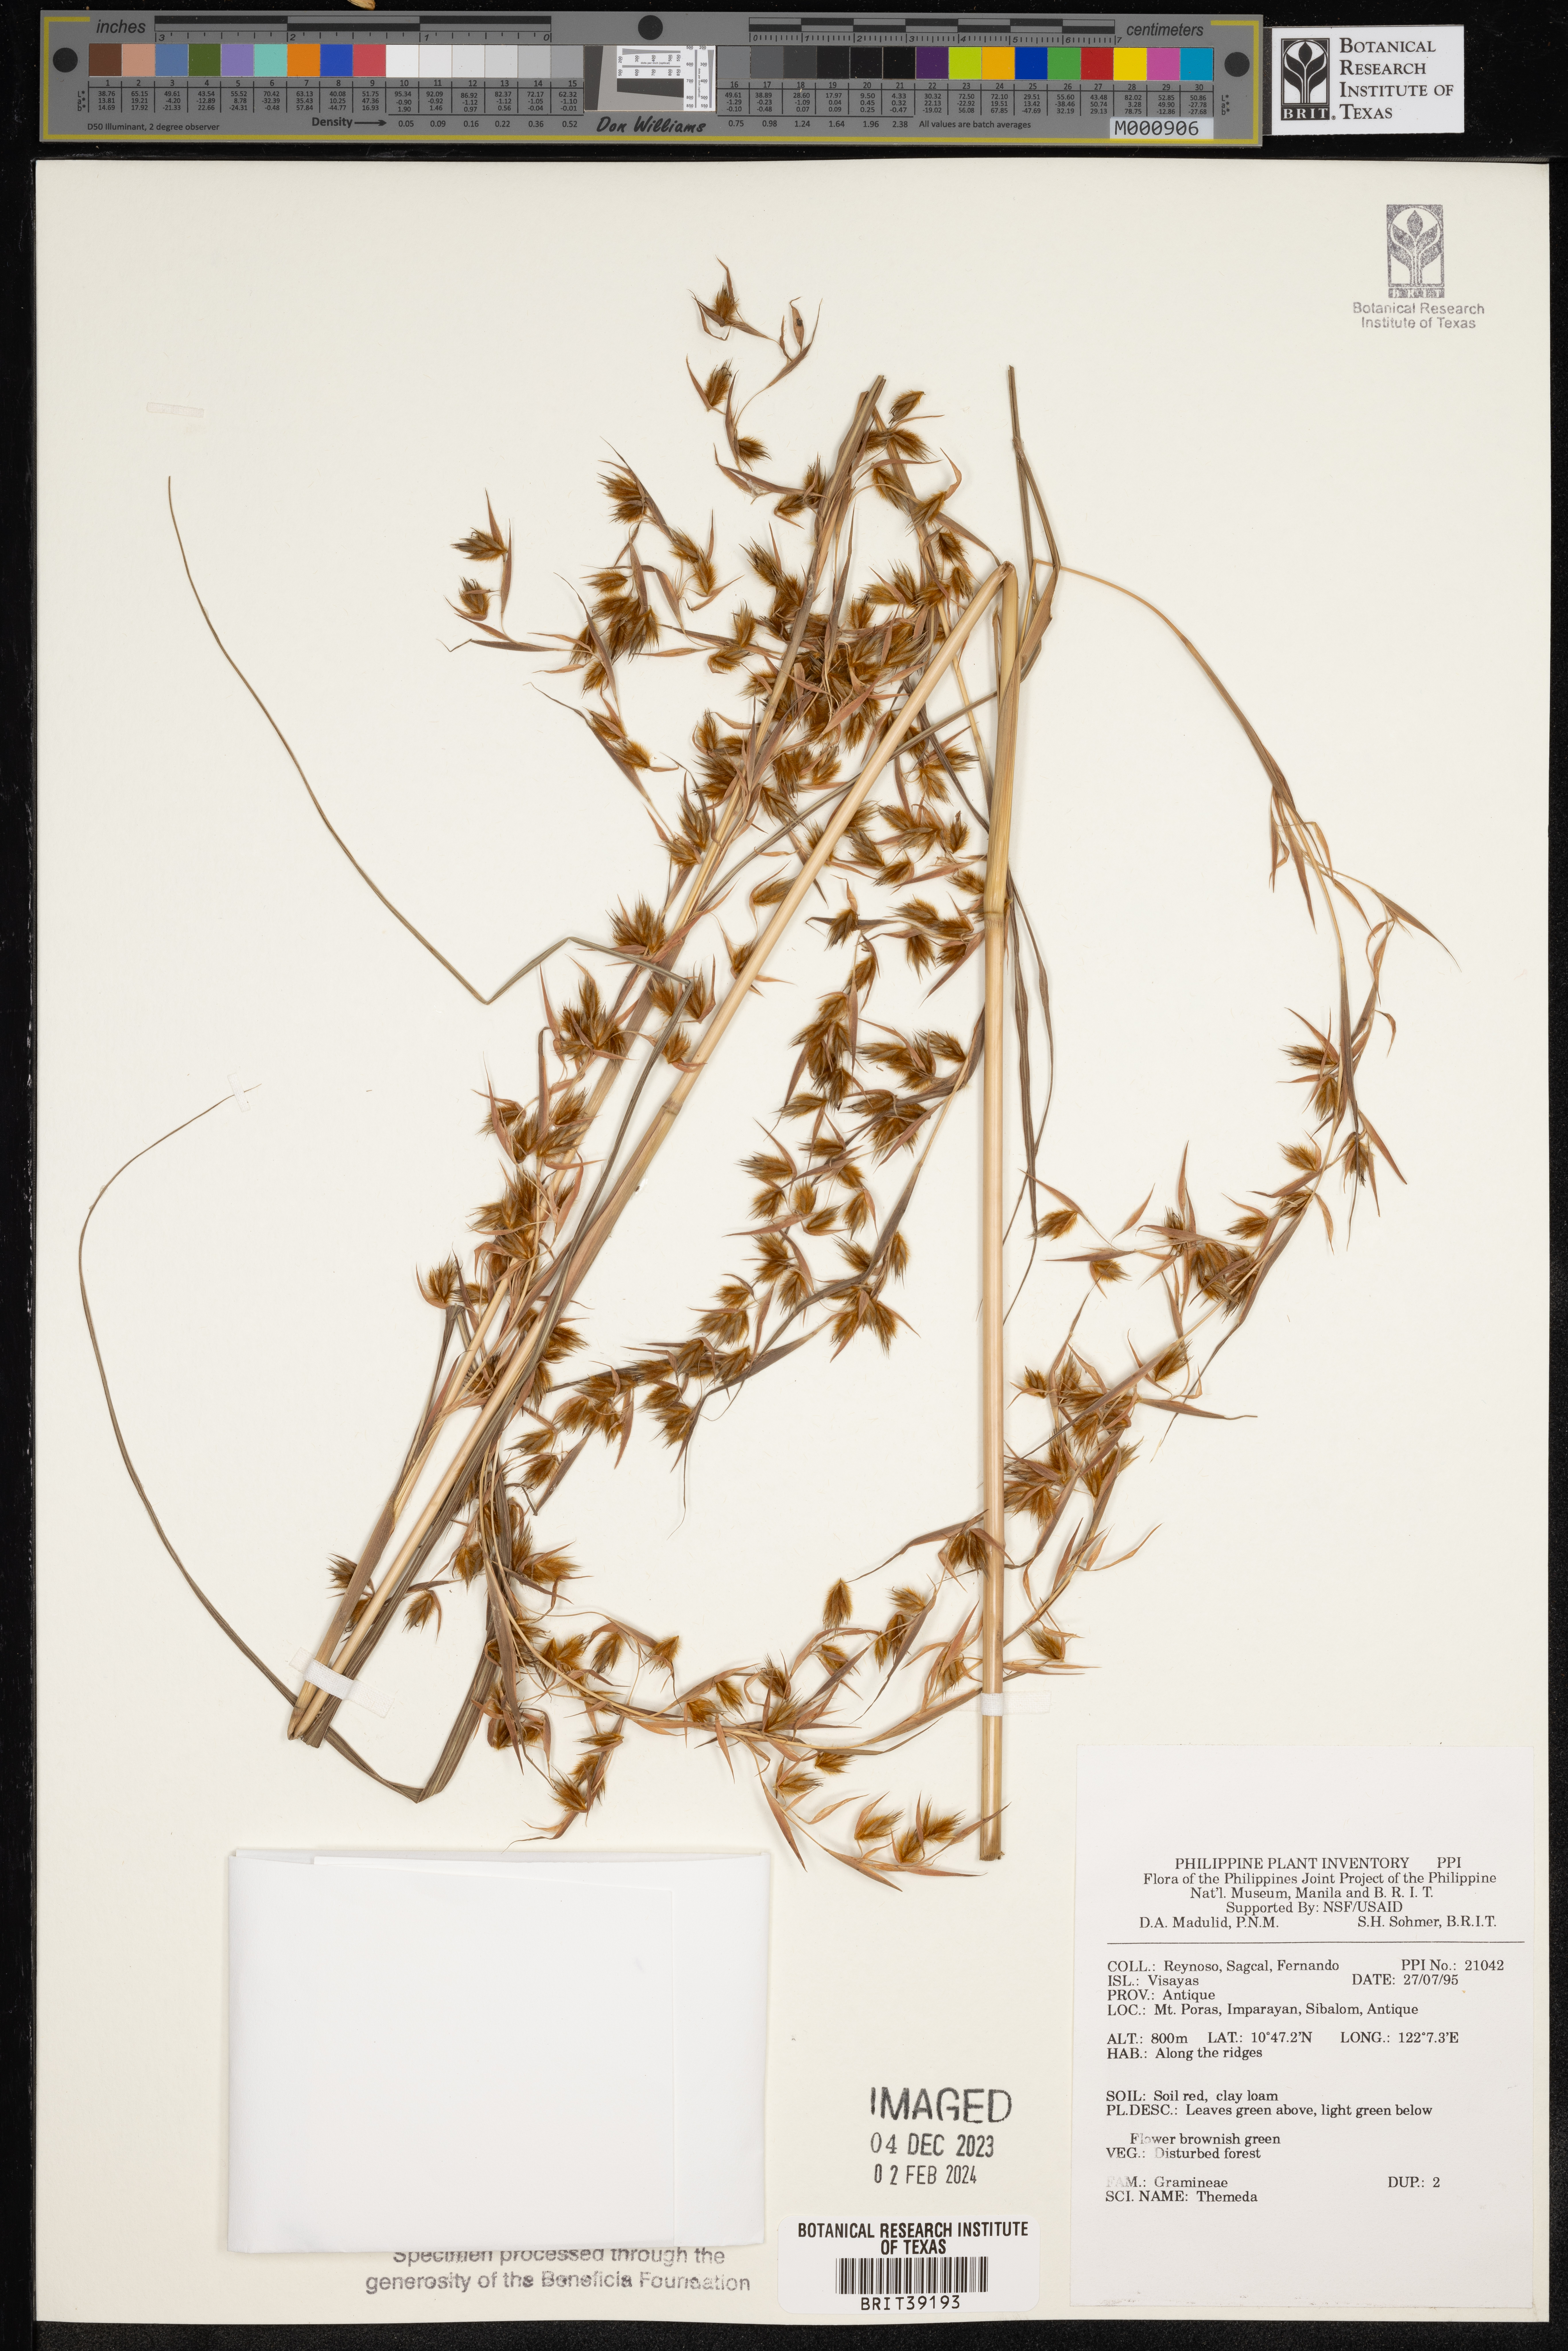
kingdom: Plantae
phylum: Tracheophyta
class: Liliopsida
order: Poales
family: Poaceae
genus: Themeda
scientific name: Themeda
